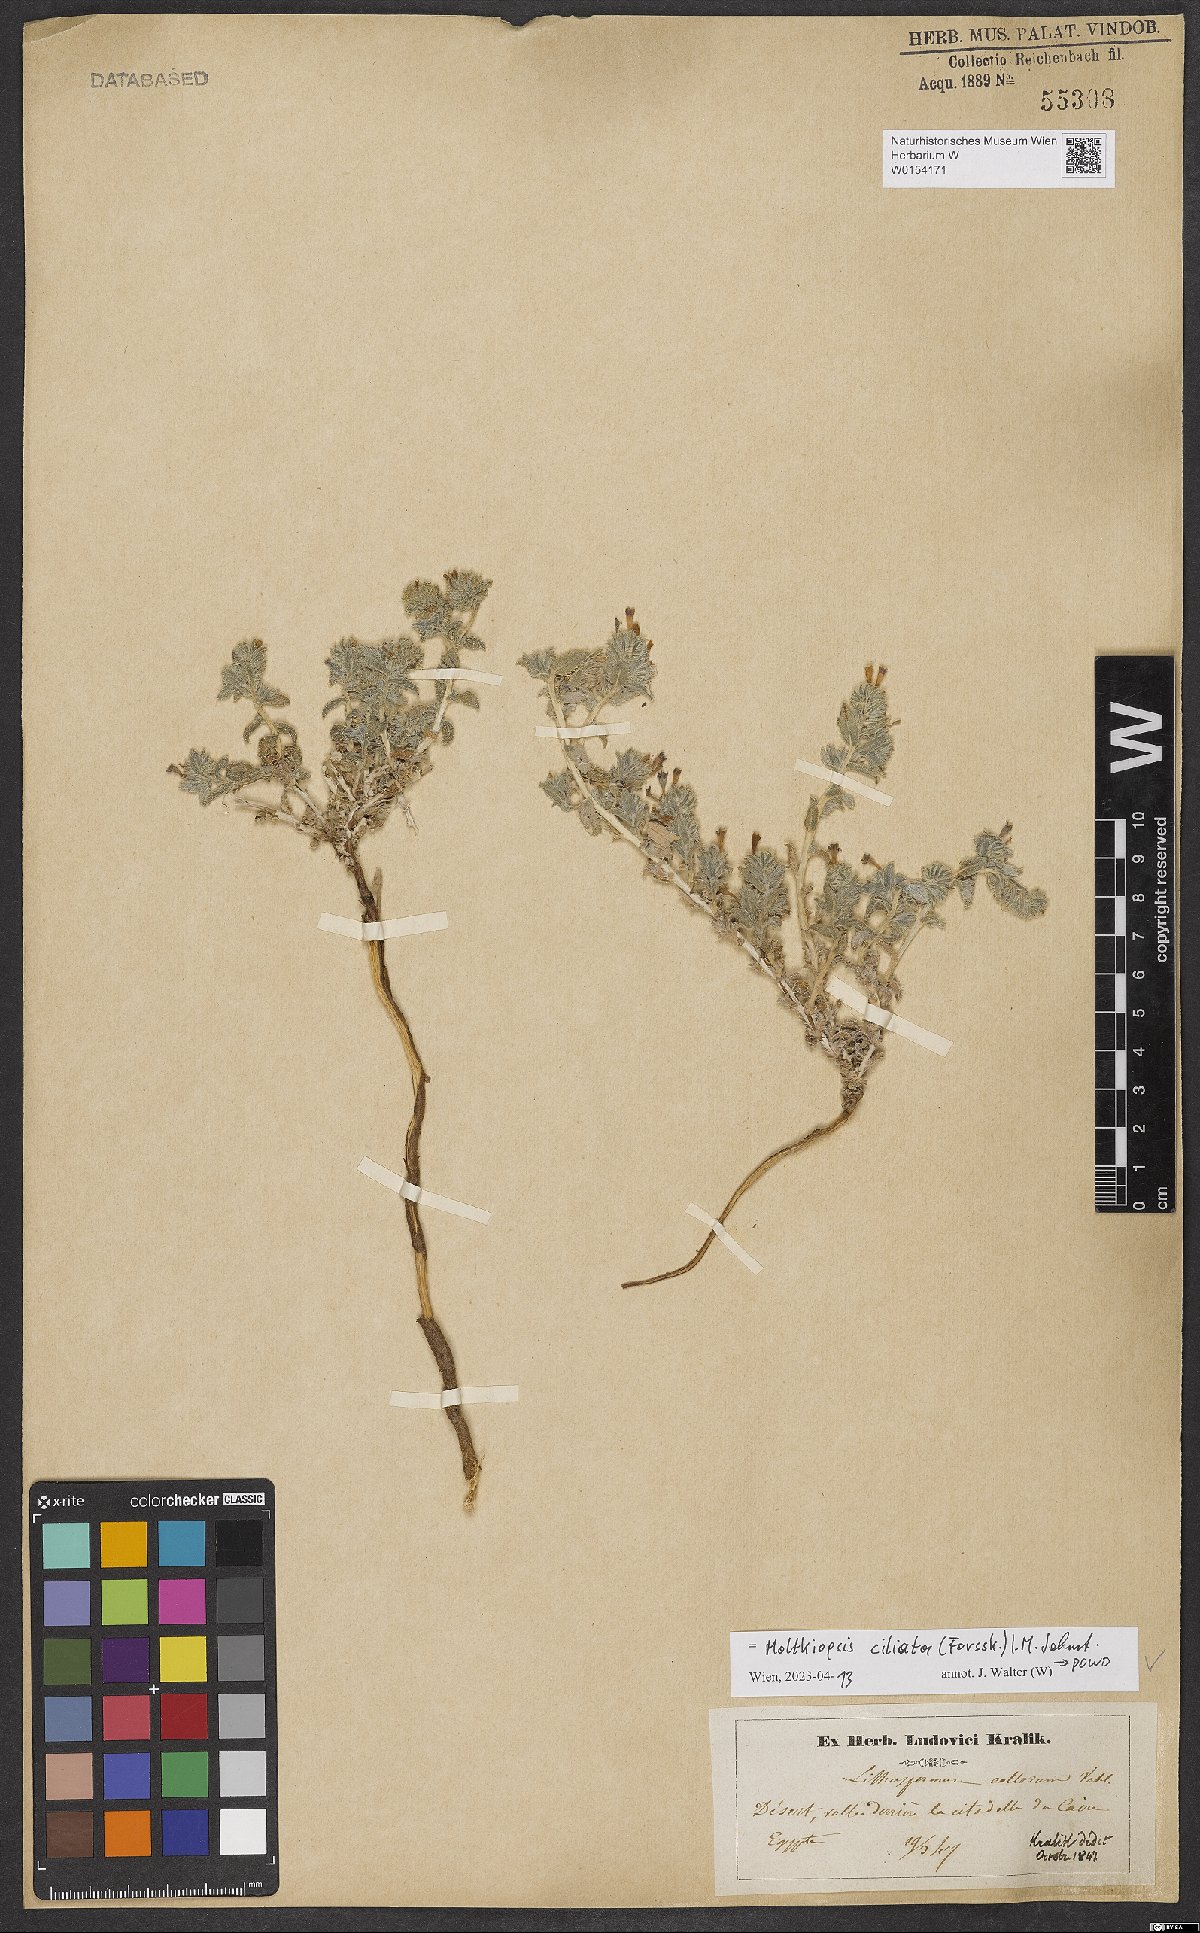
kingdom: Plantae
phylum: Tracheophyta
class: Magnoliopsida
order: Boraginales
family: Boraginaceae
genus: Moltkiopsis
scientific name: Moltkiopsis ciliata
